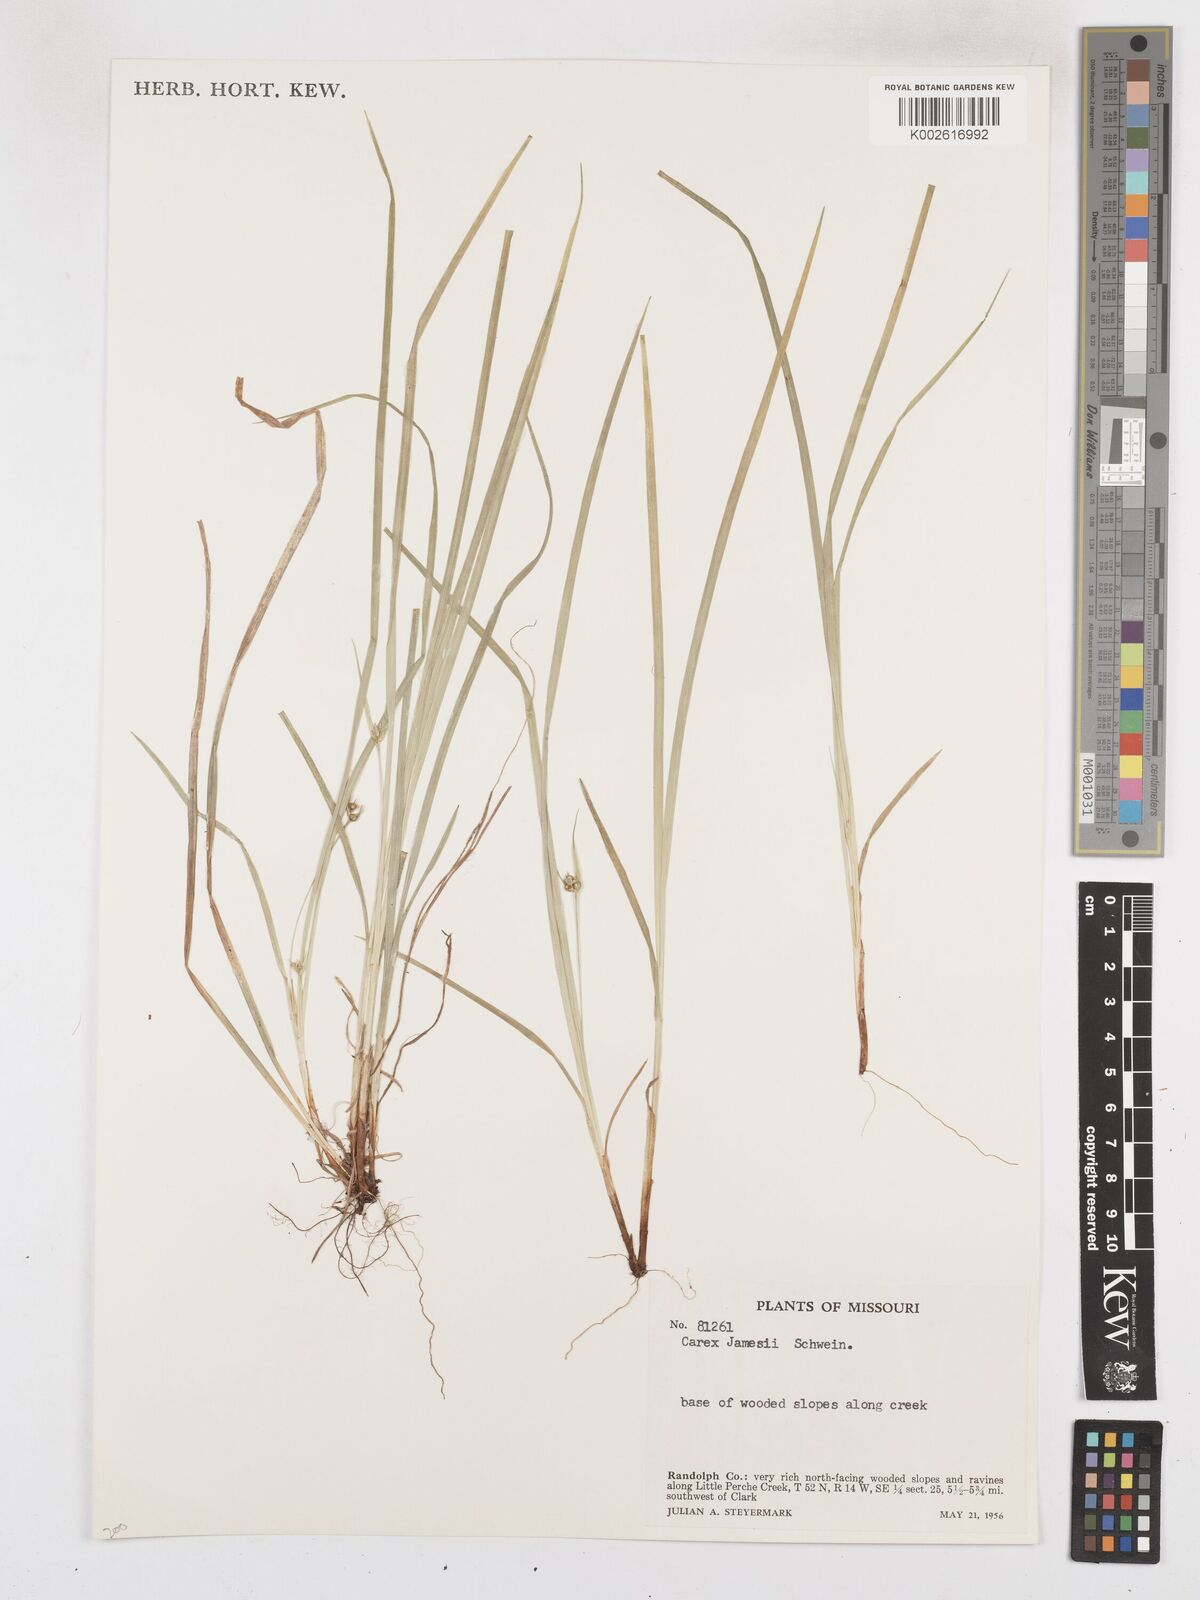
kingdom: Plantae
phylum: Tracheophyta
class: Liliopsida
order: Poales
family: Cyperaceae
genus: Carex
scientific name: Carex jamesii
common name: Grass sedge
